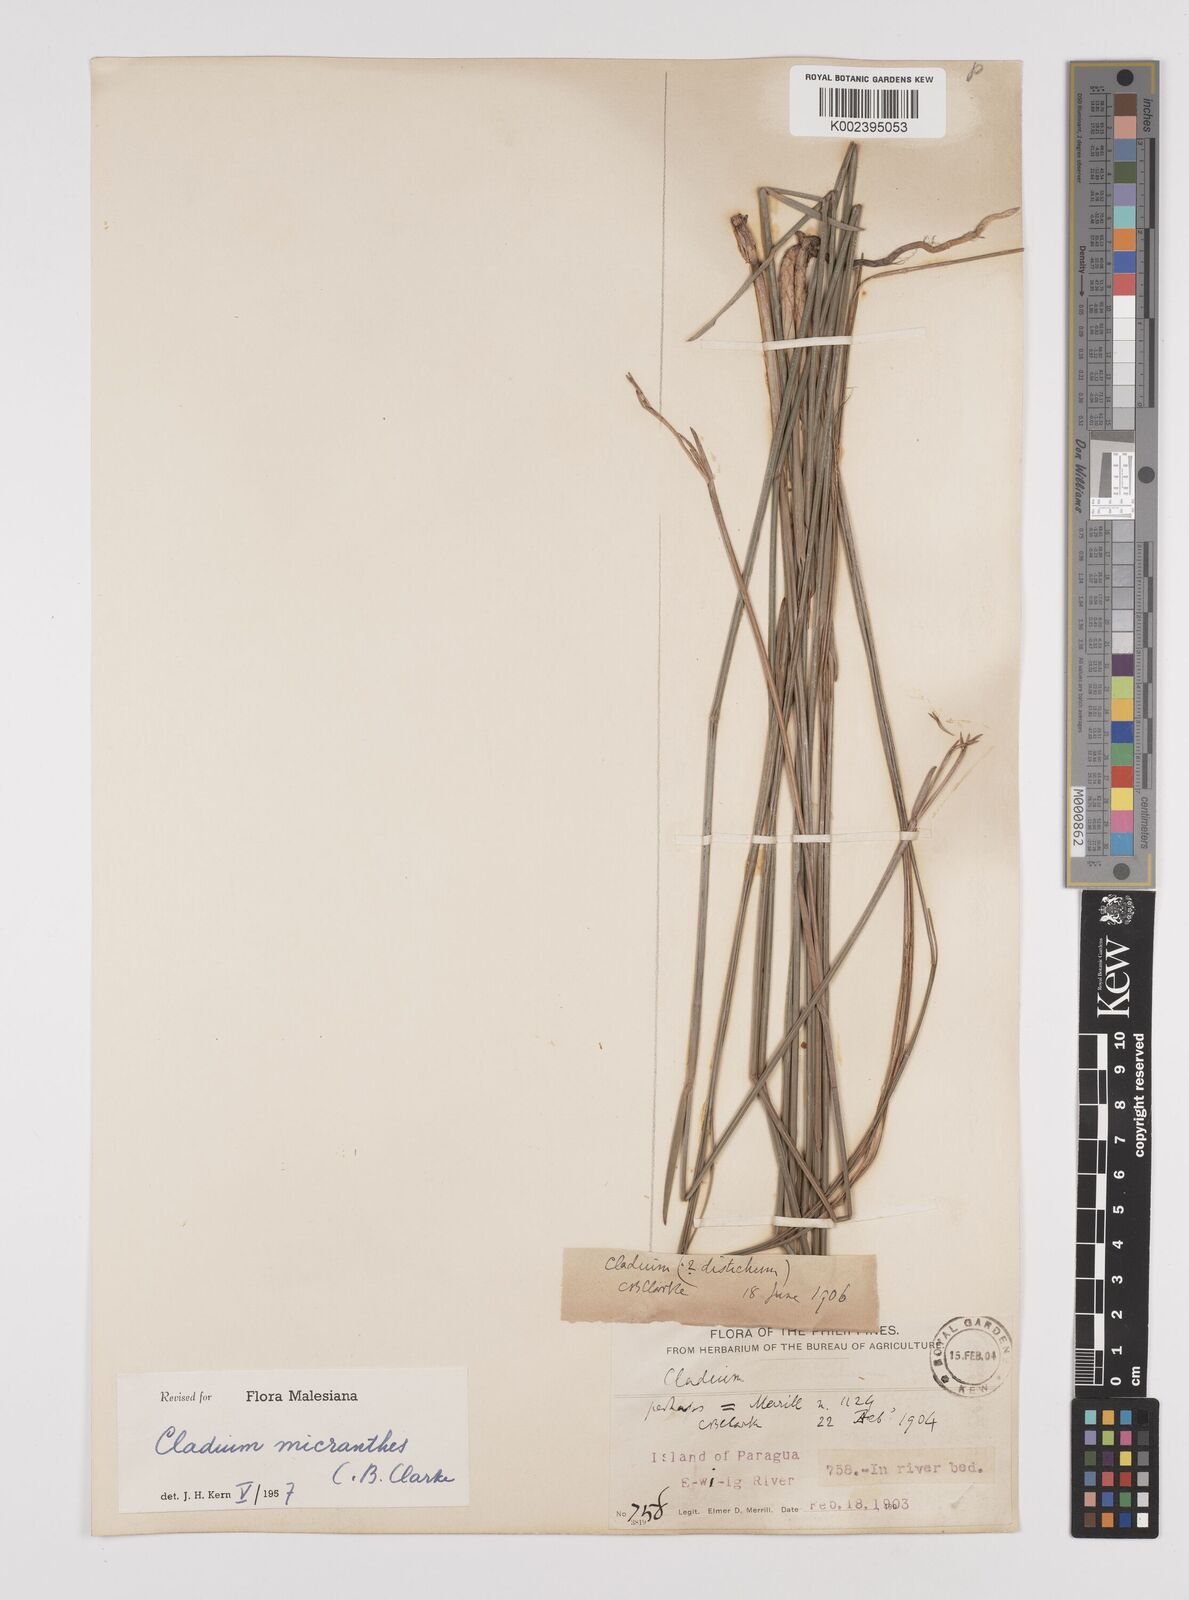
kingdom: Plantae
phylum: Tracheophyta
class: Liliopsida
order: Poales
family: Cyperaceae
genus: Machaerina
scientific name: Machaerina disticha
